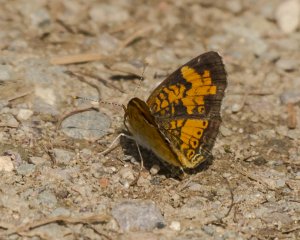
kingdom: Animalia
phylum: Arthropoda
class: Insecta
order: Lepidoptera
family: Nymphalidae
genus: Phyciodes
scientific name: Phyciodes tharos
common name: Northern Crescent
